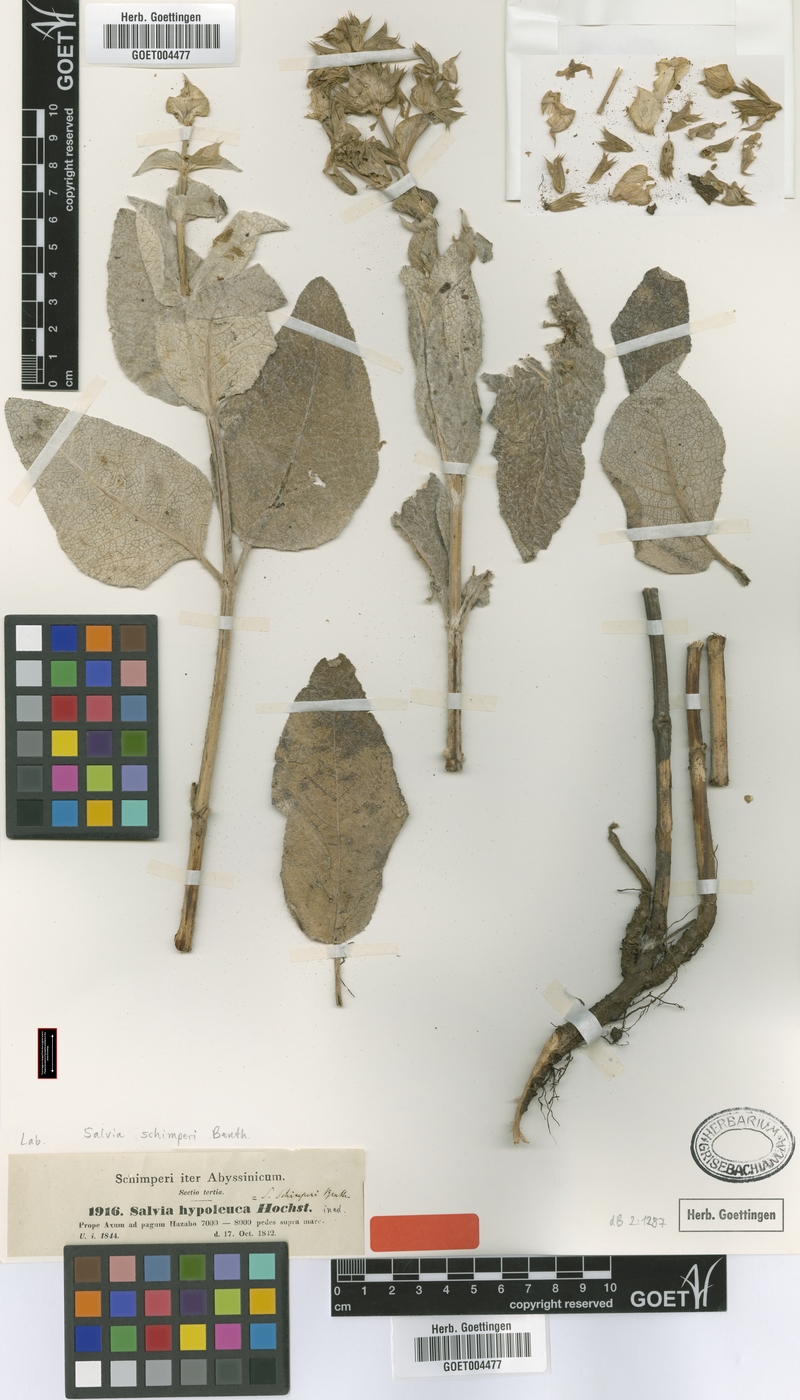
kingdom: Plantae
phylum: Tracheophyta
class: Magnoliopsida
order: Lamiales
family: Lamiaceae
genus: Salvia
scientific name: Salvia schimperi
